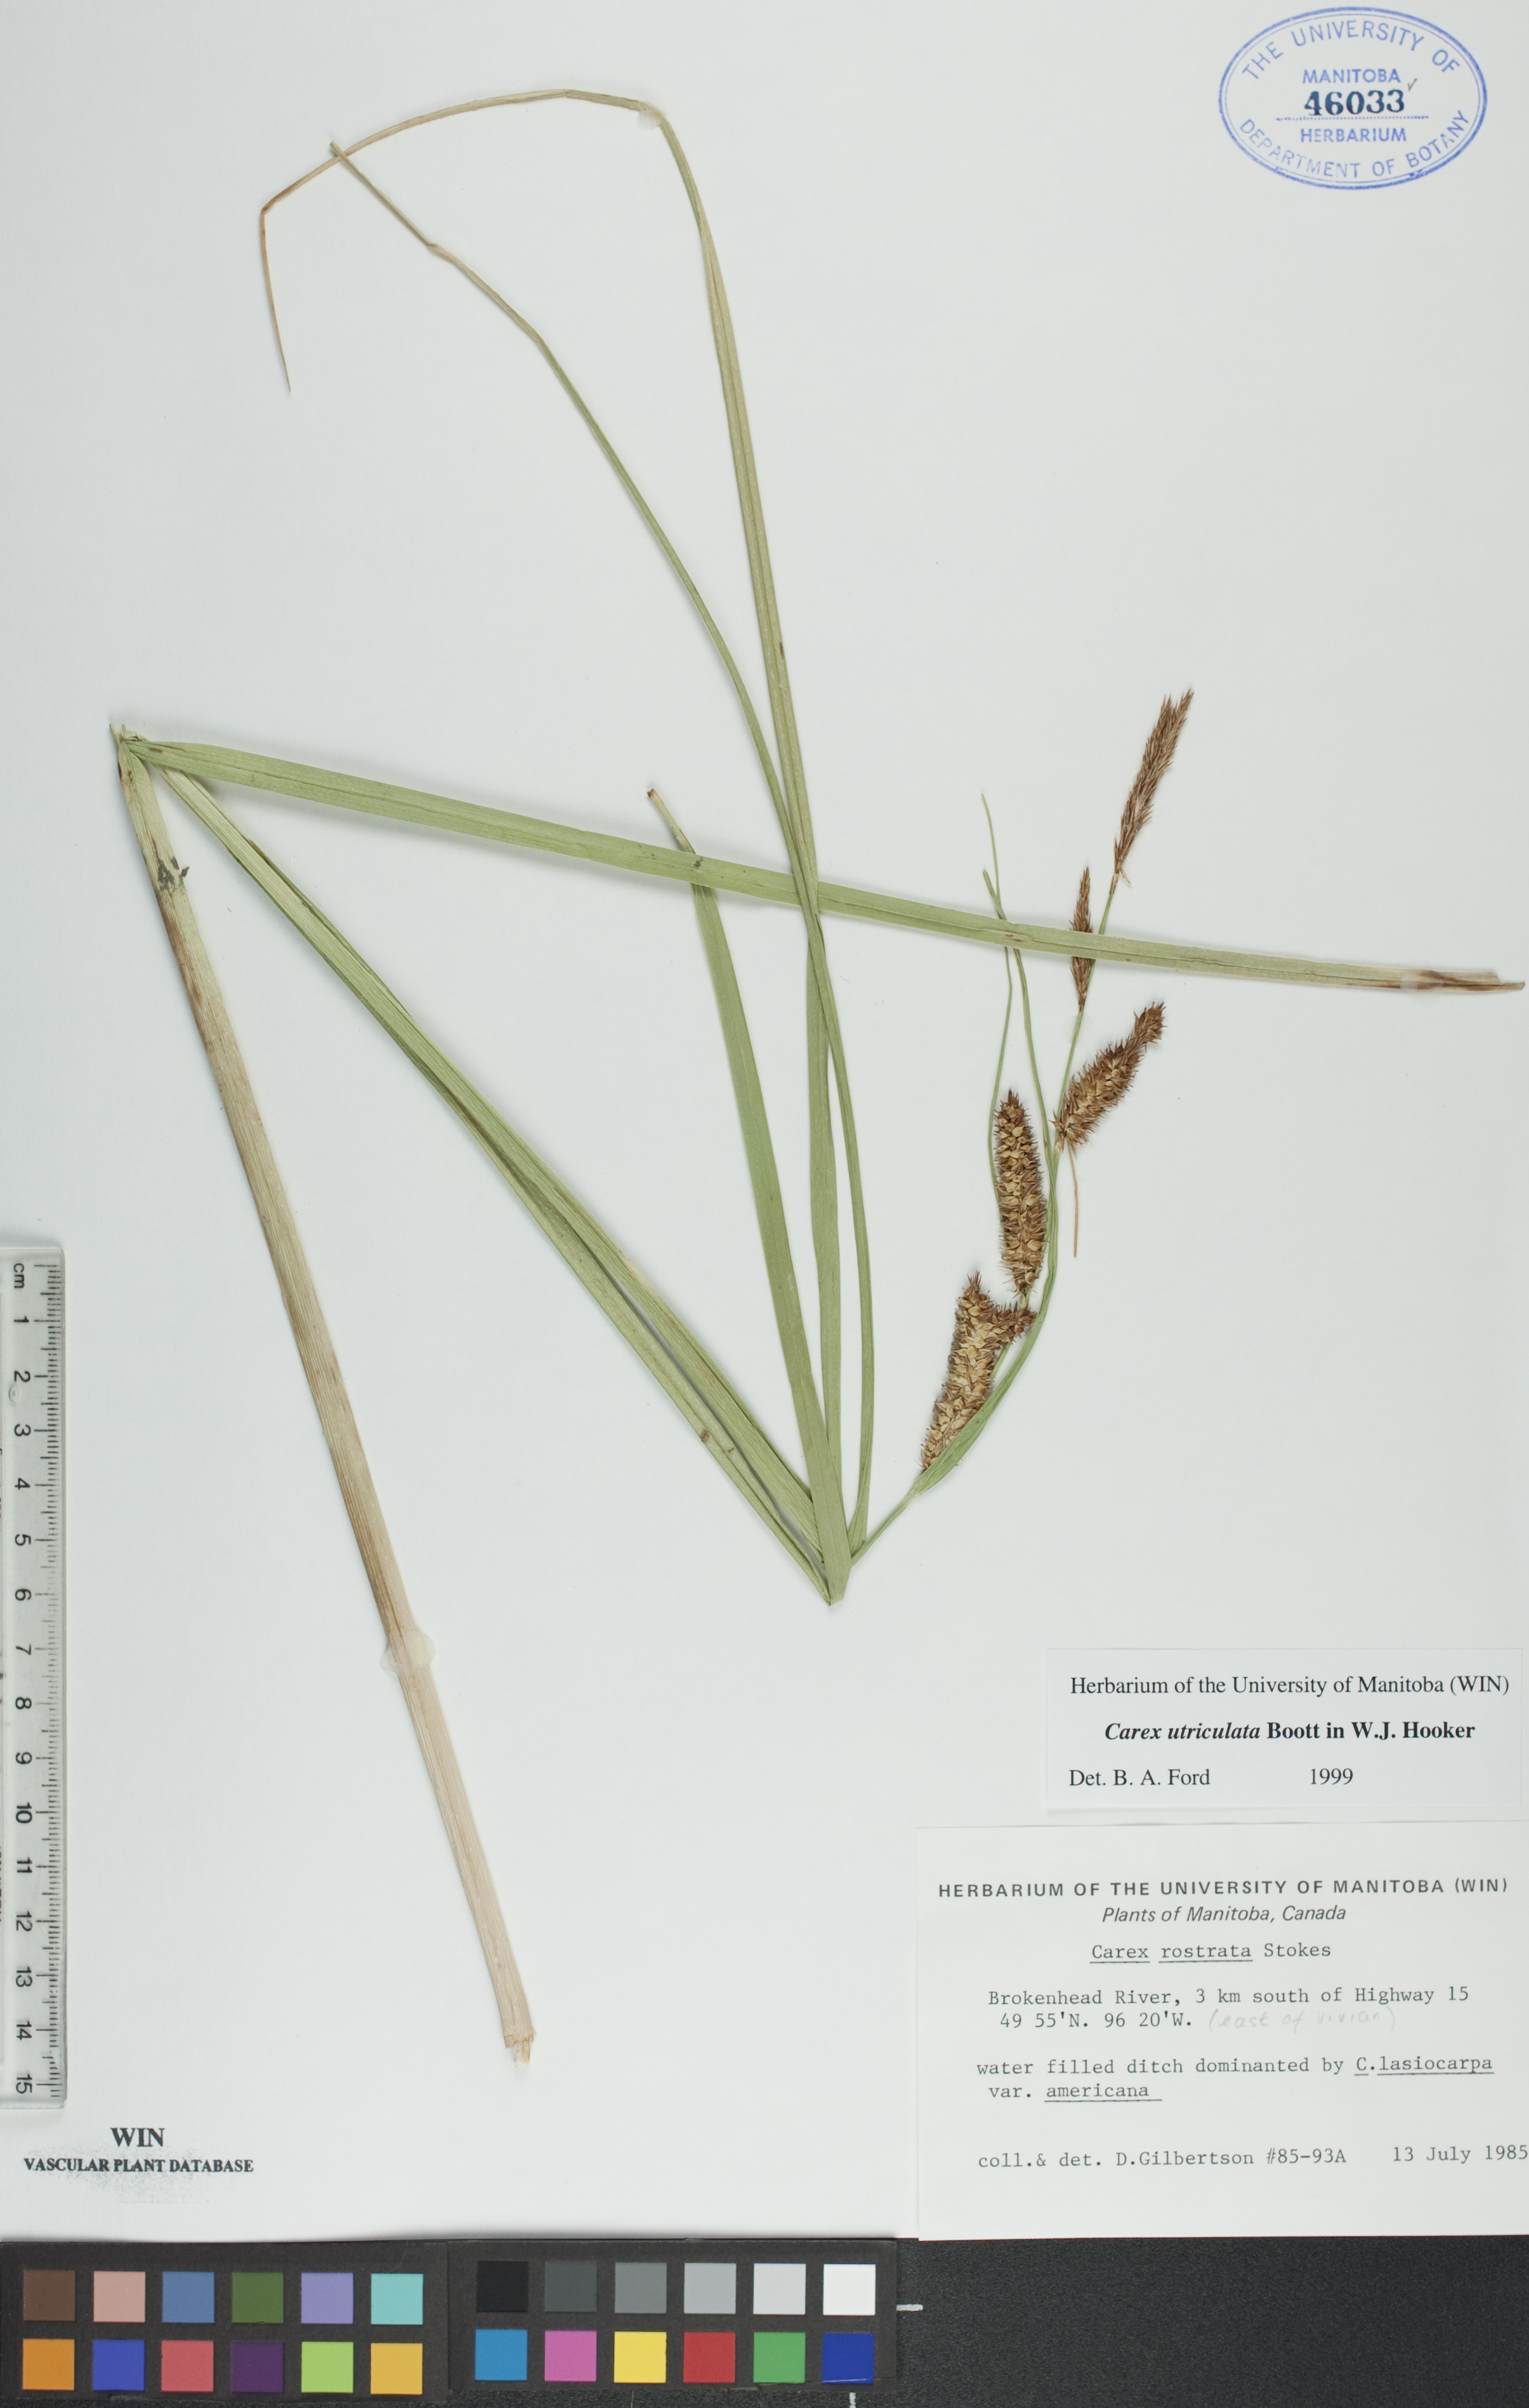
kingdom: Plantae
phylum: Tracheophyta
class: Liliopsida
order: Poales
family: Cyperaceae
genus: Carex
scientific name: Carex utriculata
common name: Beaked sedge
